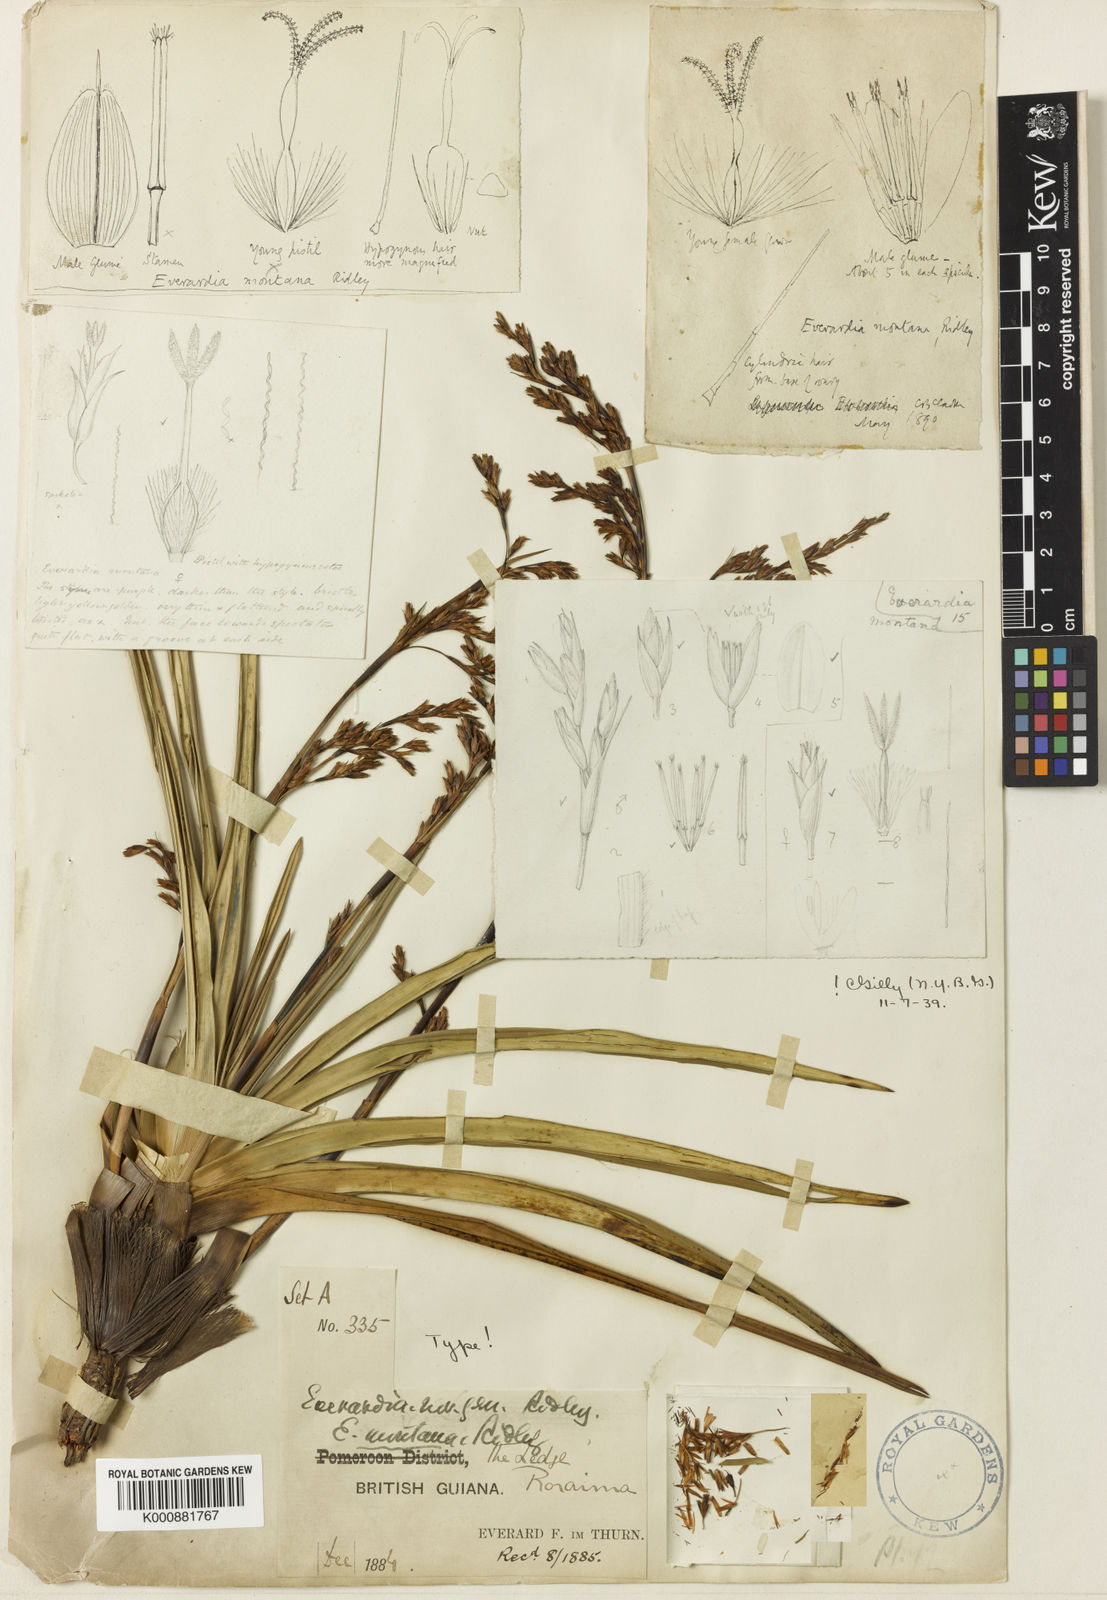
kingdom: Plantae
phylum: Tracheophyta
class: Liliopsida
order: Poales
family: Cyperaceae
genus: Cephalocarpus
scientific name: Cephalocarpus montanus
